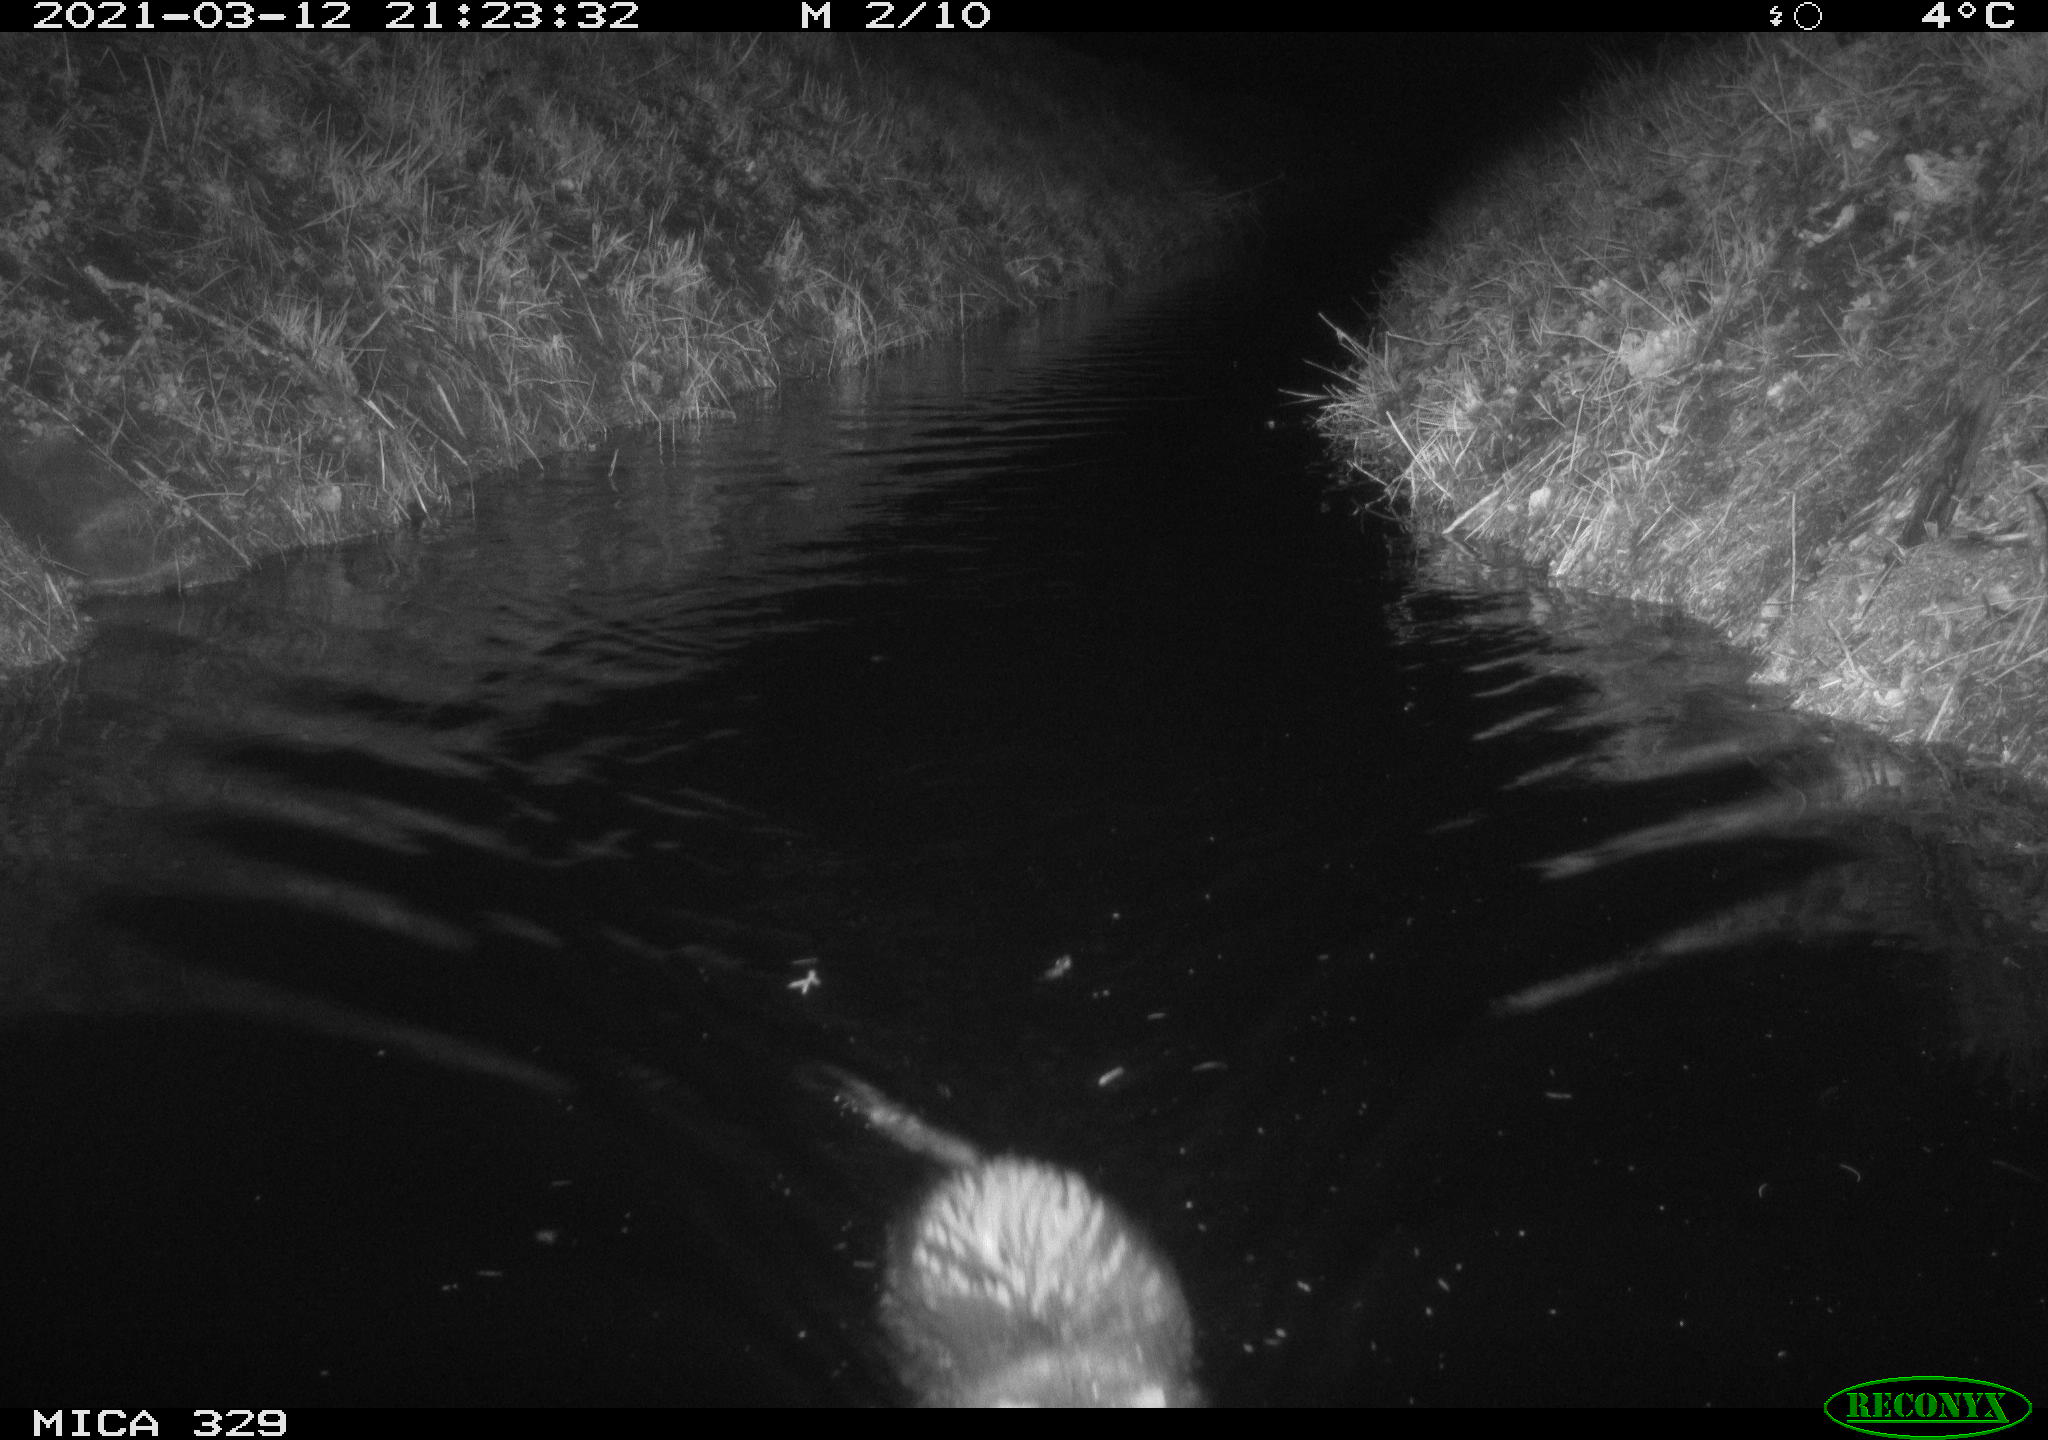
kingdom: Animalia
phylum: Chordata
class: Mammalia
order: Rodentia
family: Cricetidae
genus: Ondatra
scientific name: Ondatra zibethicus
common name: Muskrat
